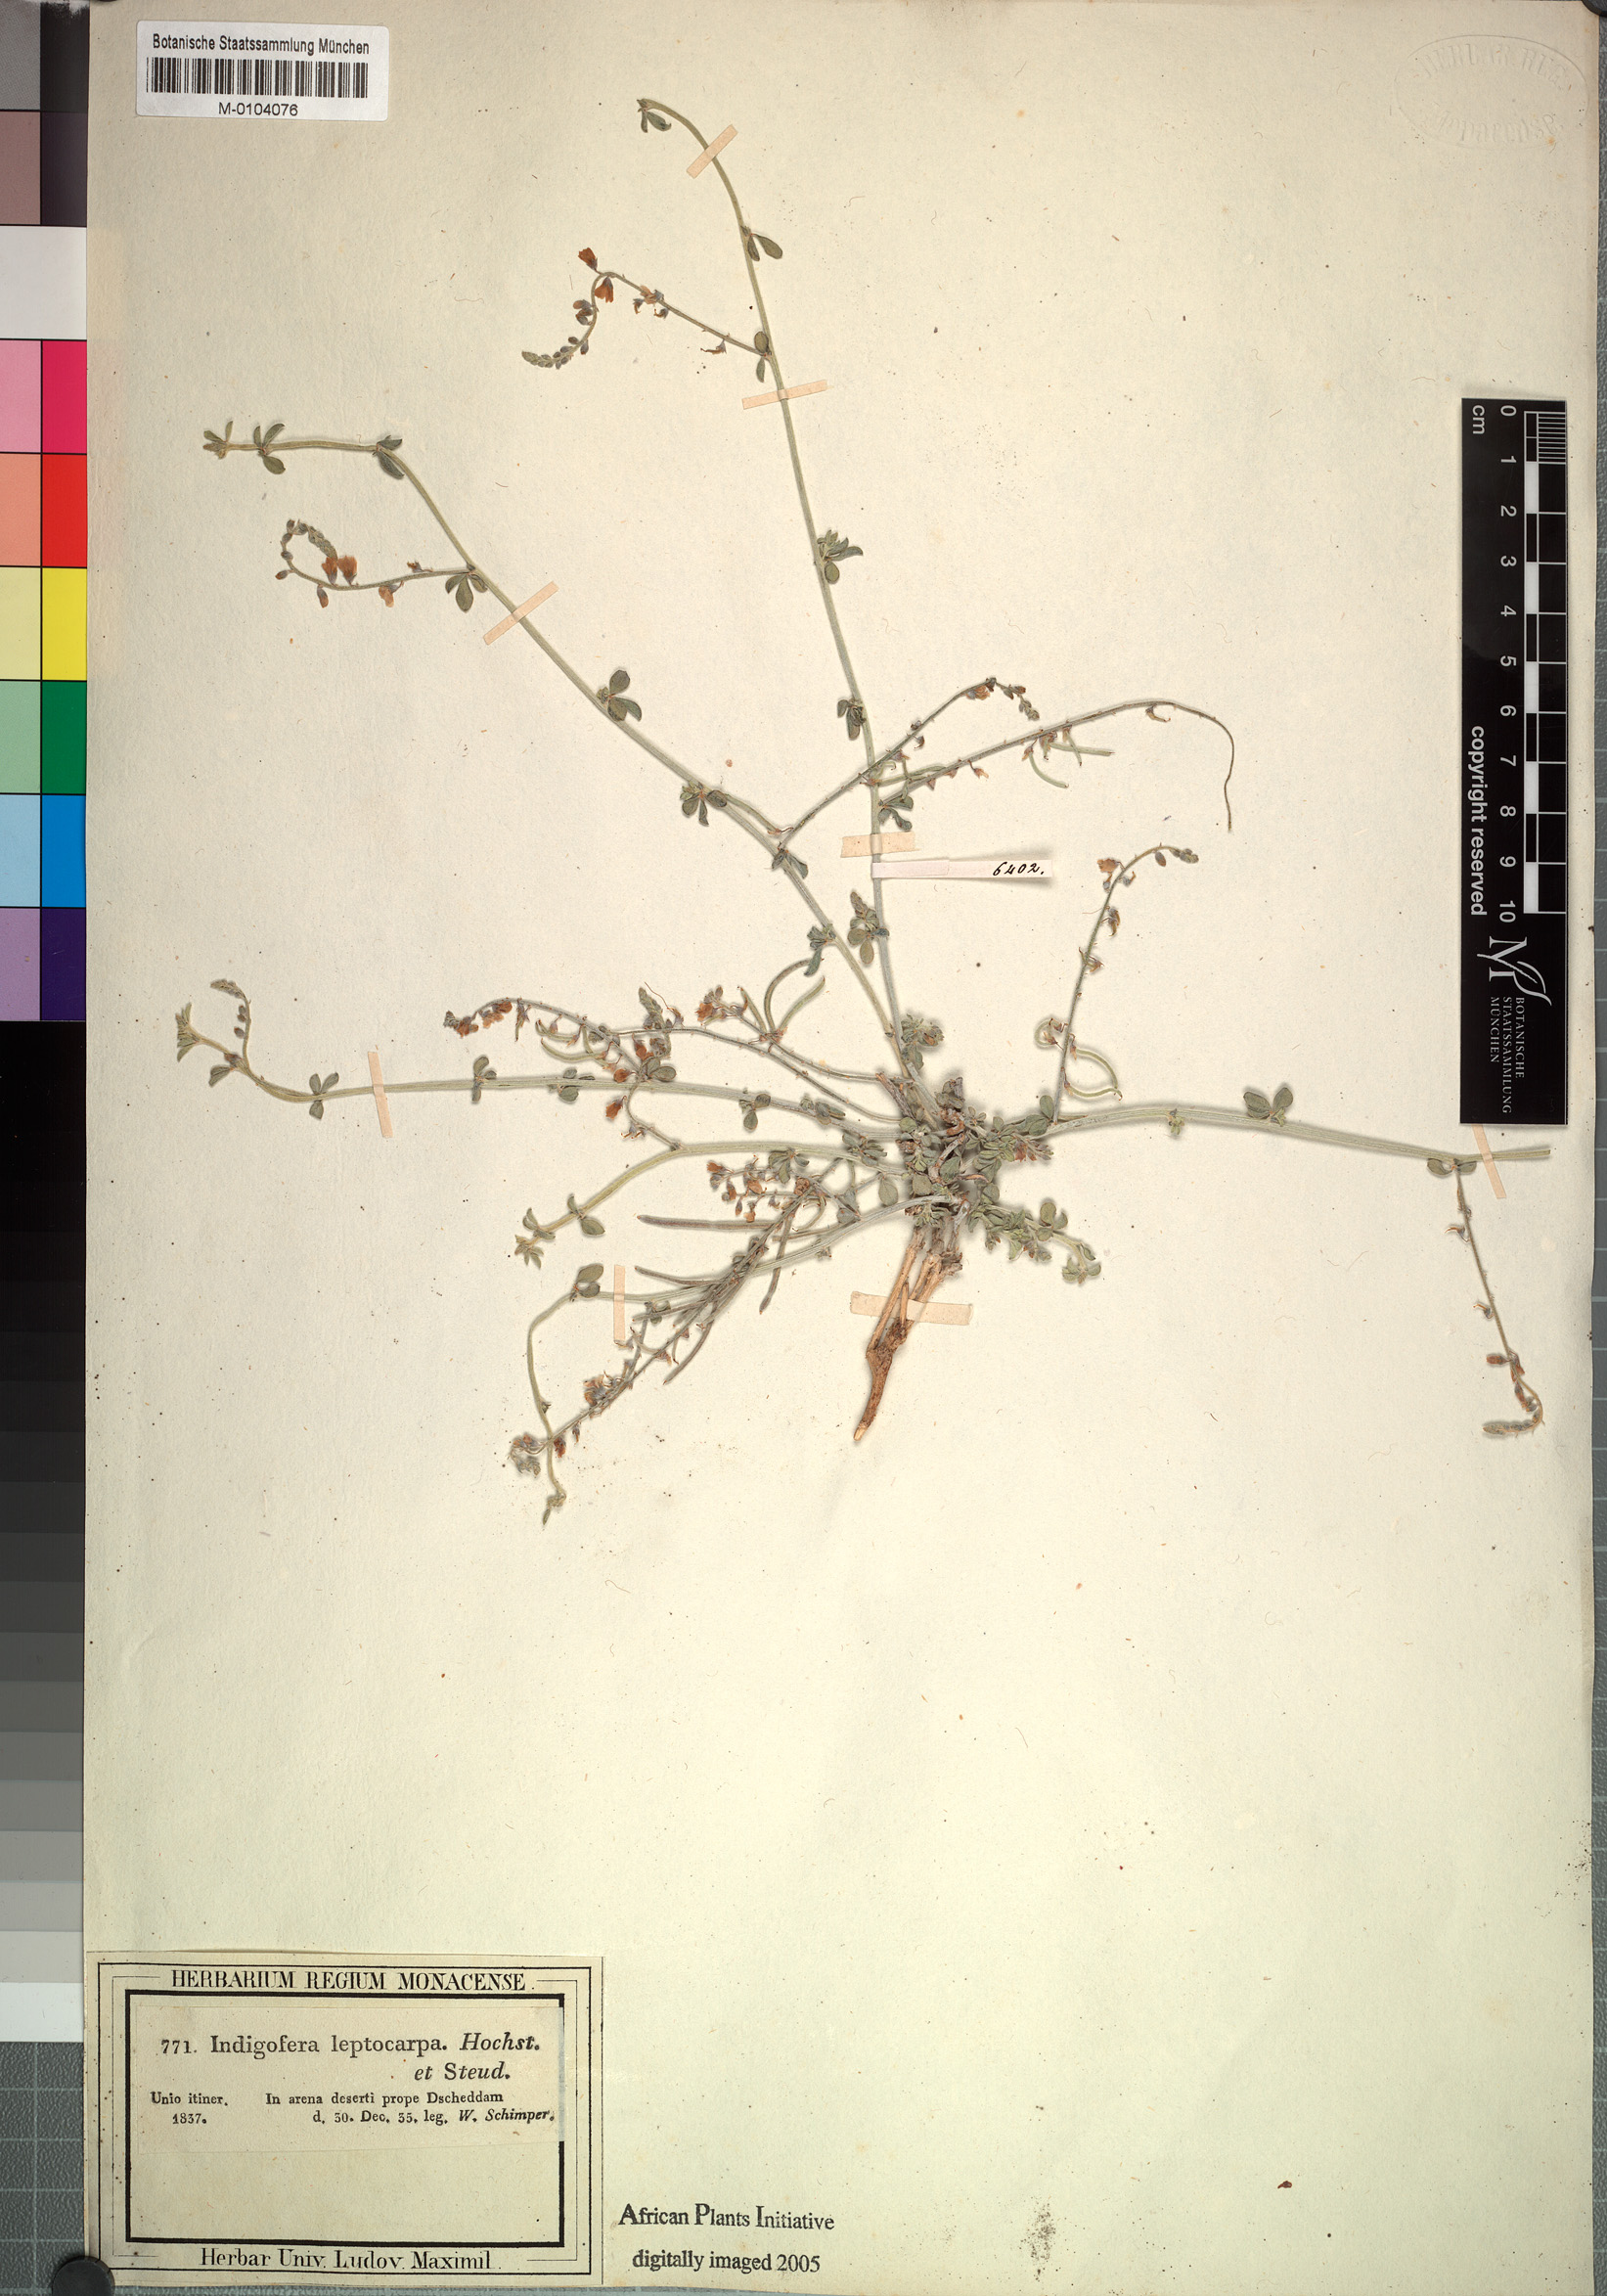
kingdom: Plantae
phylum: Tracheophyta
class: Magnoliopsida
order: Fabales
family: Fabaceae
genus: Microcharis
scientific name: Microcharis tritoides
